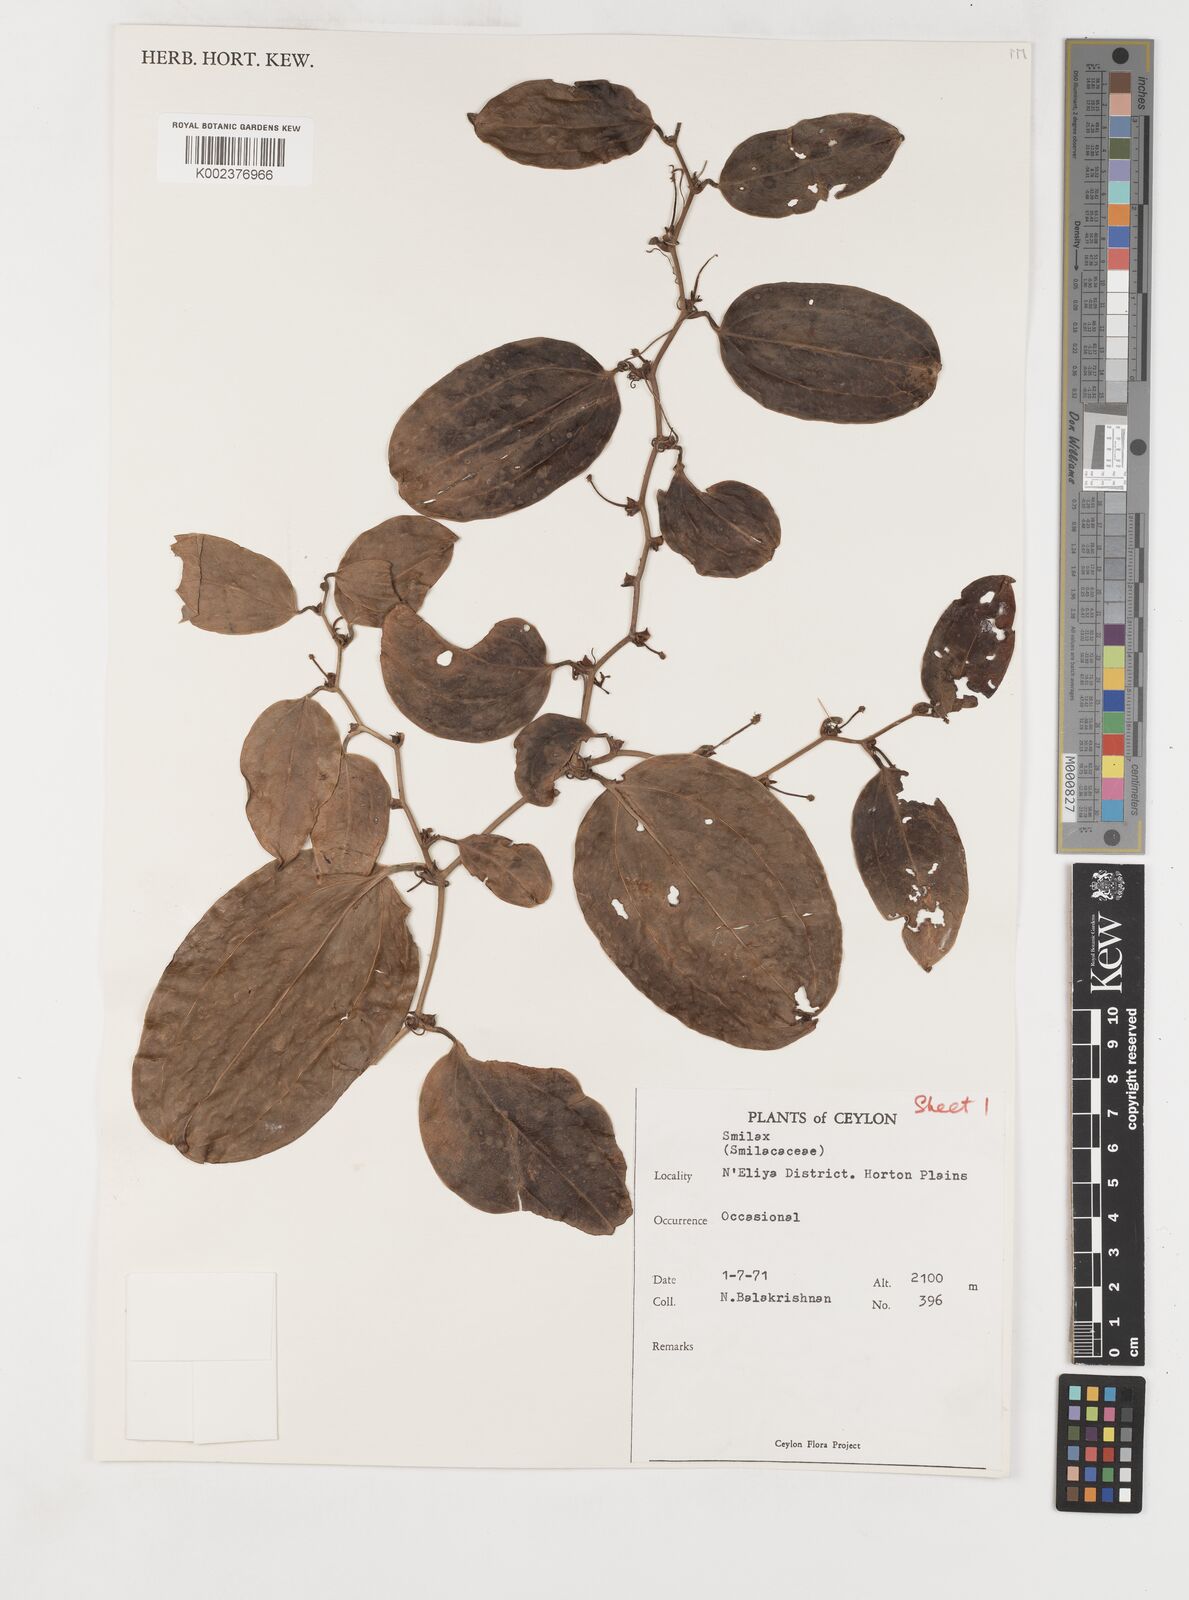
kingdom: Plantae
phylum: Tracheophyta
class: Liliopsida
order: Liliales
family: Smilacaceae
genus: Smilax
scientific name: Smilax
